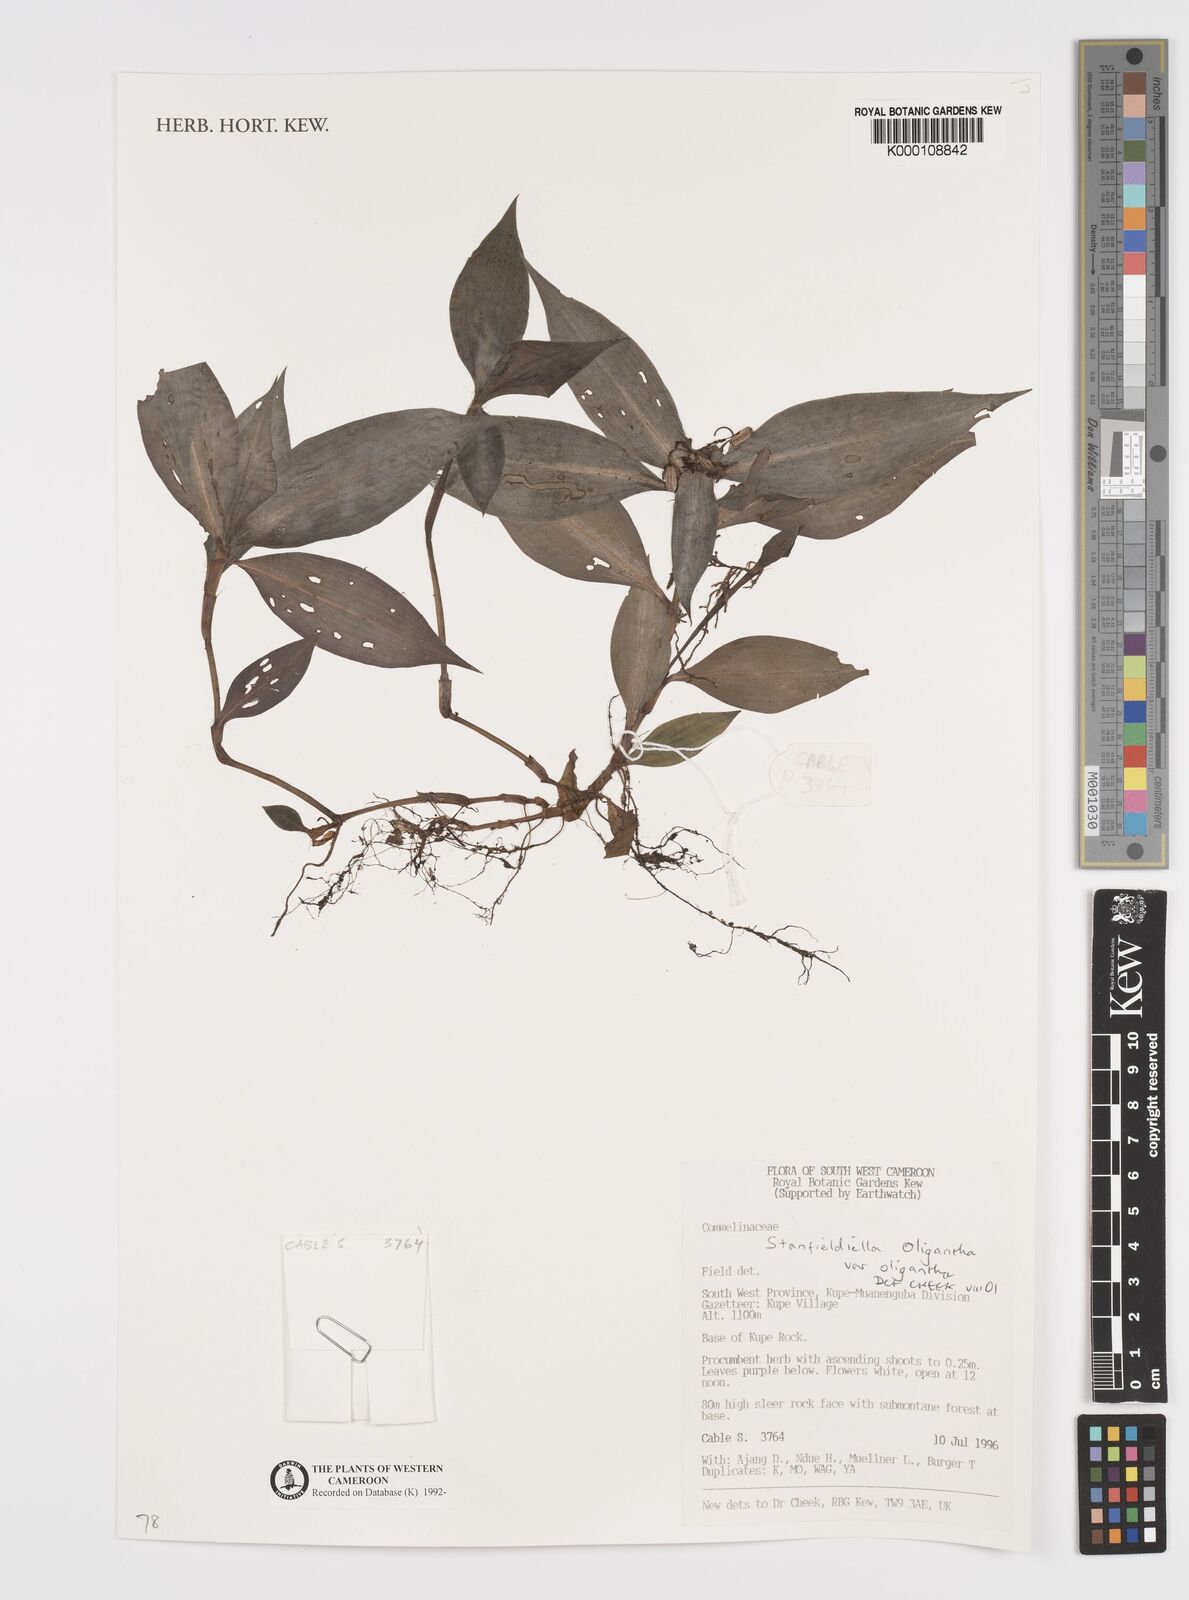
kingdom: Plantae
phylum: Tracheophyta
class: Liliopsida
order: Commelinales
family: Commelinaceae
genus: Stanfieldiella
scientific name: Stanfieldiella oligantha
